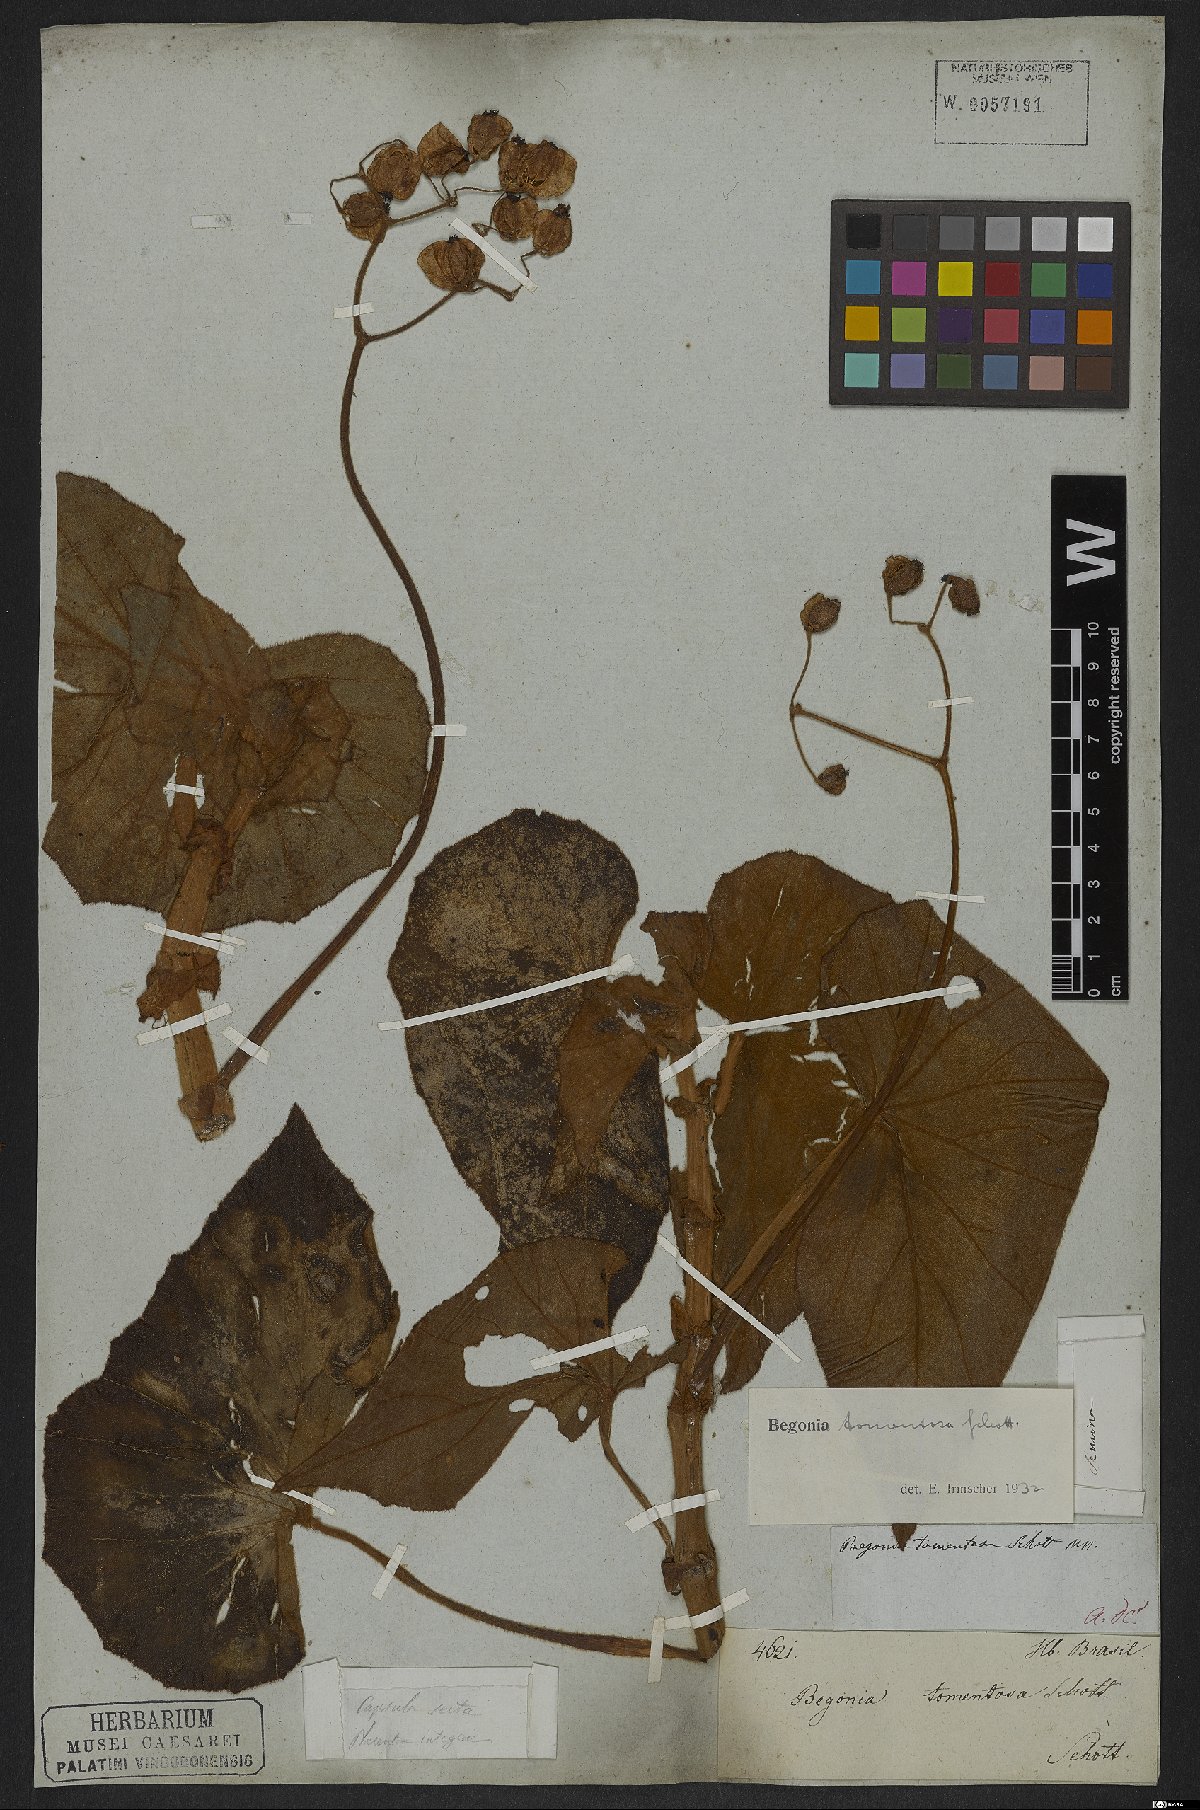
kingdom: Plantae
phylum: Tracheophyta
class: Magnoliopsida
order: Cucurbitales
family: Begoniaceae
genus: Begonia
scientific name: Begonia tomentosa
